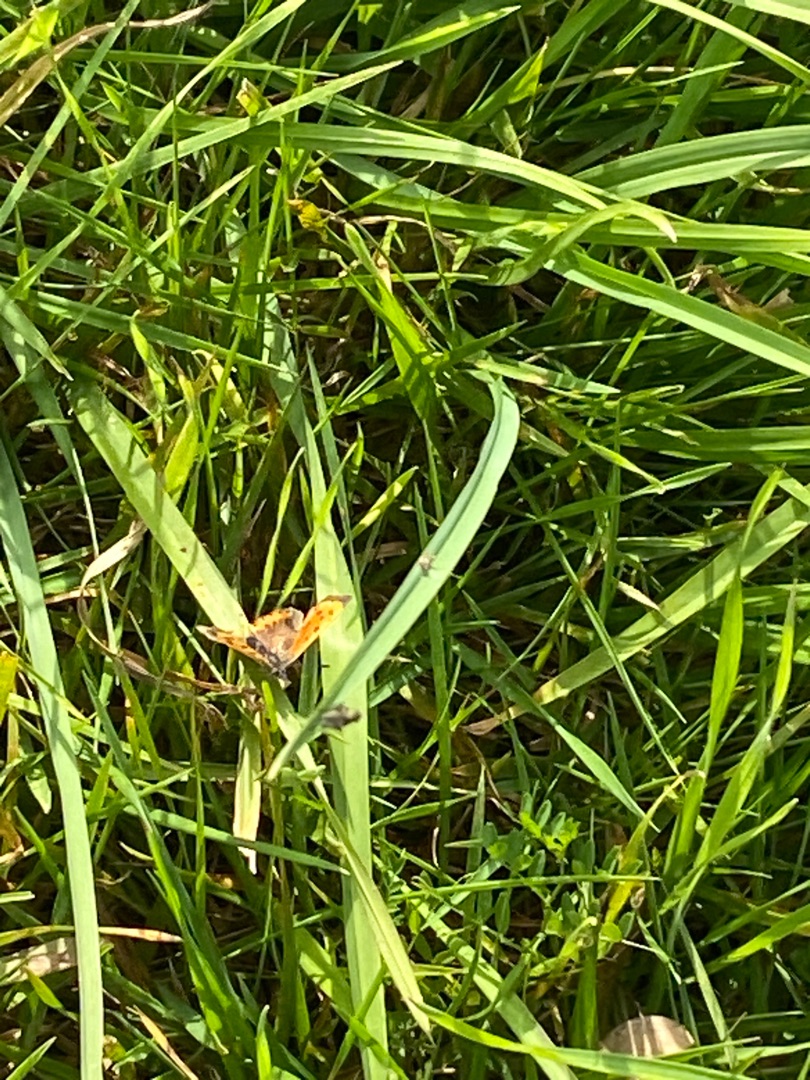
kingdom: Animalia
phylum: Arthropoda
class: Insecta
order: Lepidoptera
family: Lycaenidae
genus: Lycaena
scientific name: Lycaena phlaeas
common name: Lille ildfugl
